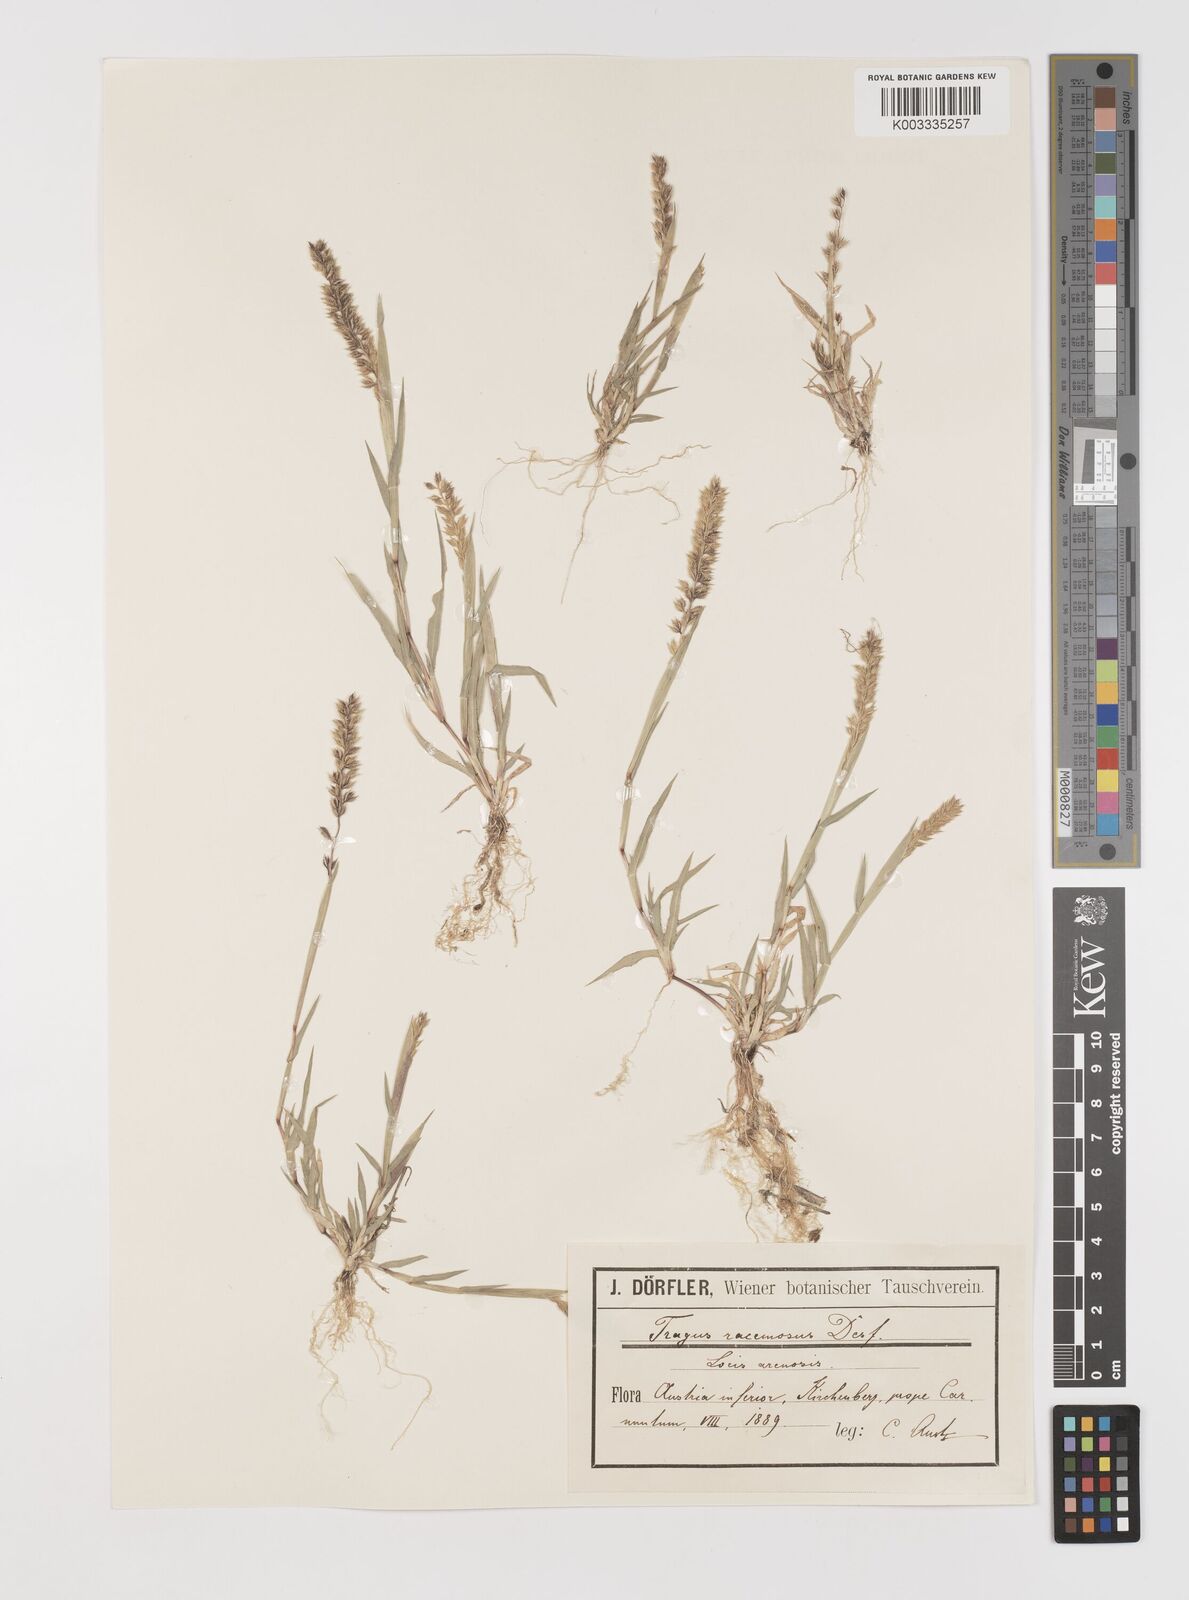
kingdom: Plantae
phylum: Tracheophyta
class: Liliopsida
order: Poales
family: Poaceae
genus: Tragus
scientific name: Tragus racemosus
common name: European bur-grass
